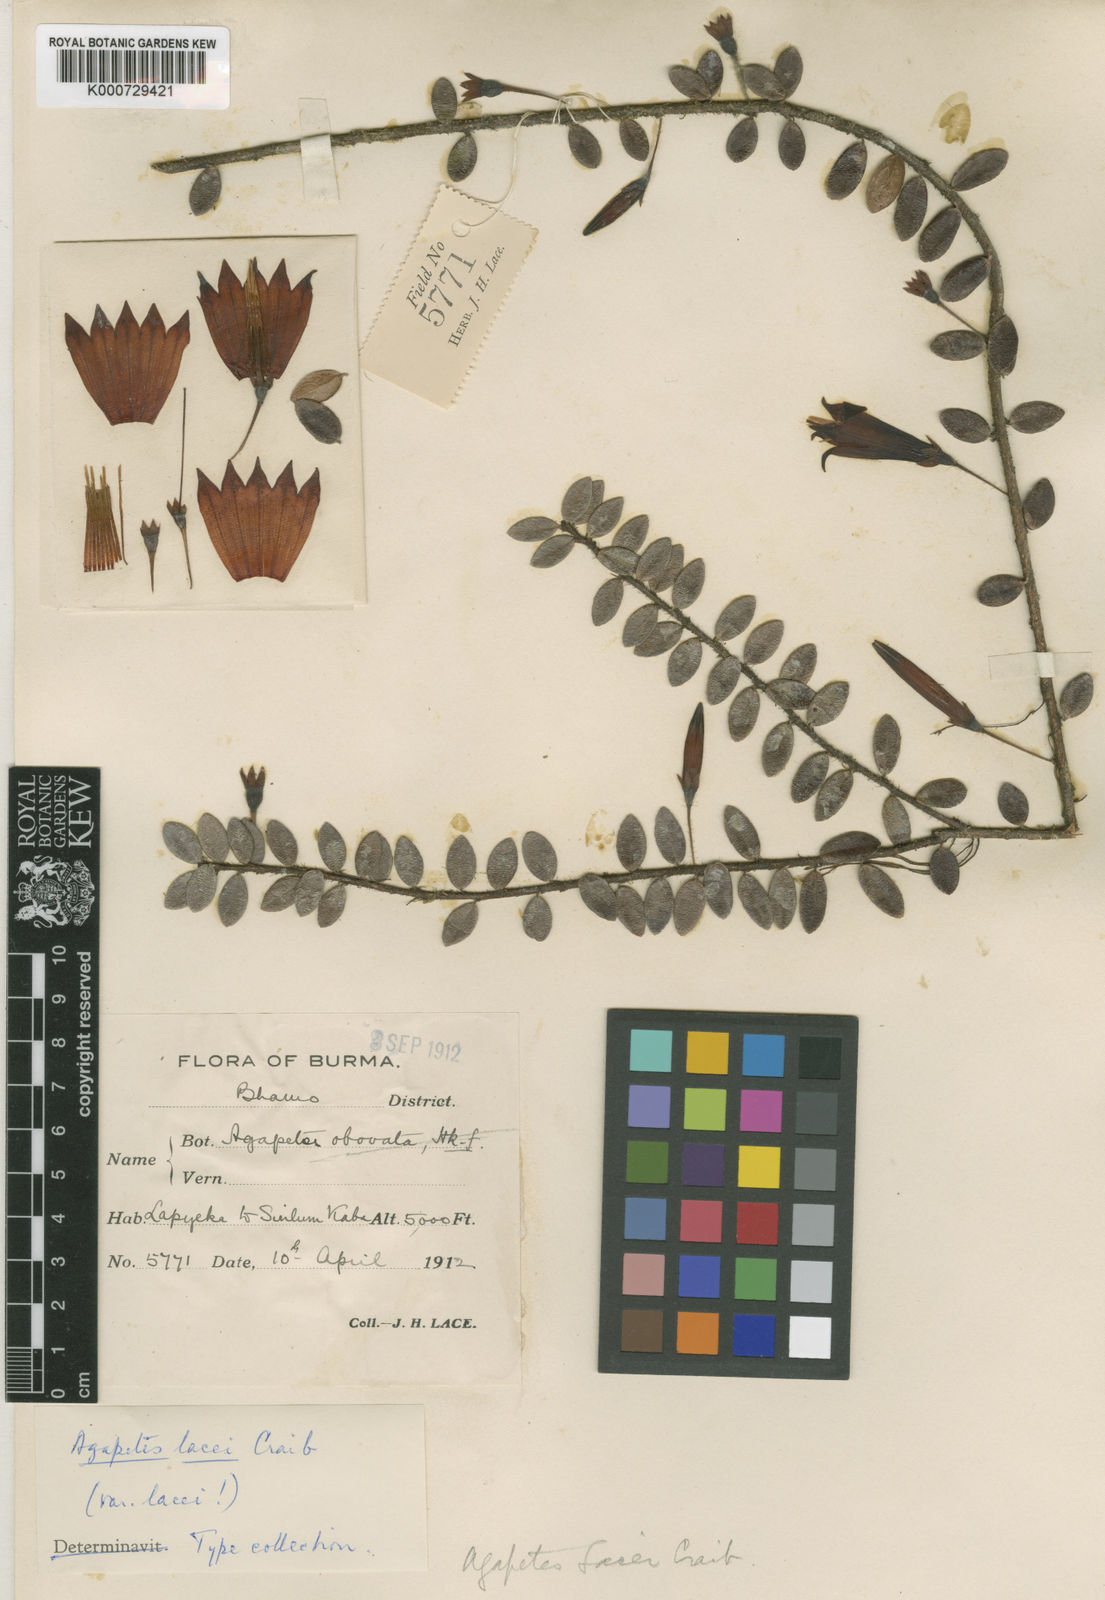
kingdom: Plantae
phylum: Tracheophyta
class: Magnoliopsida
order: Ericales
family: Ericaceae
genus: Agapetes
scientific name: Agapetes lacei
